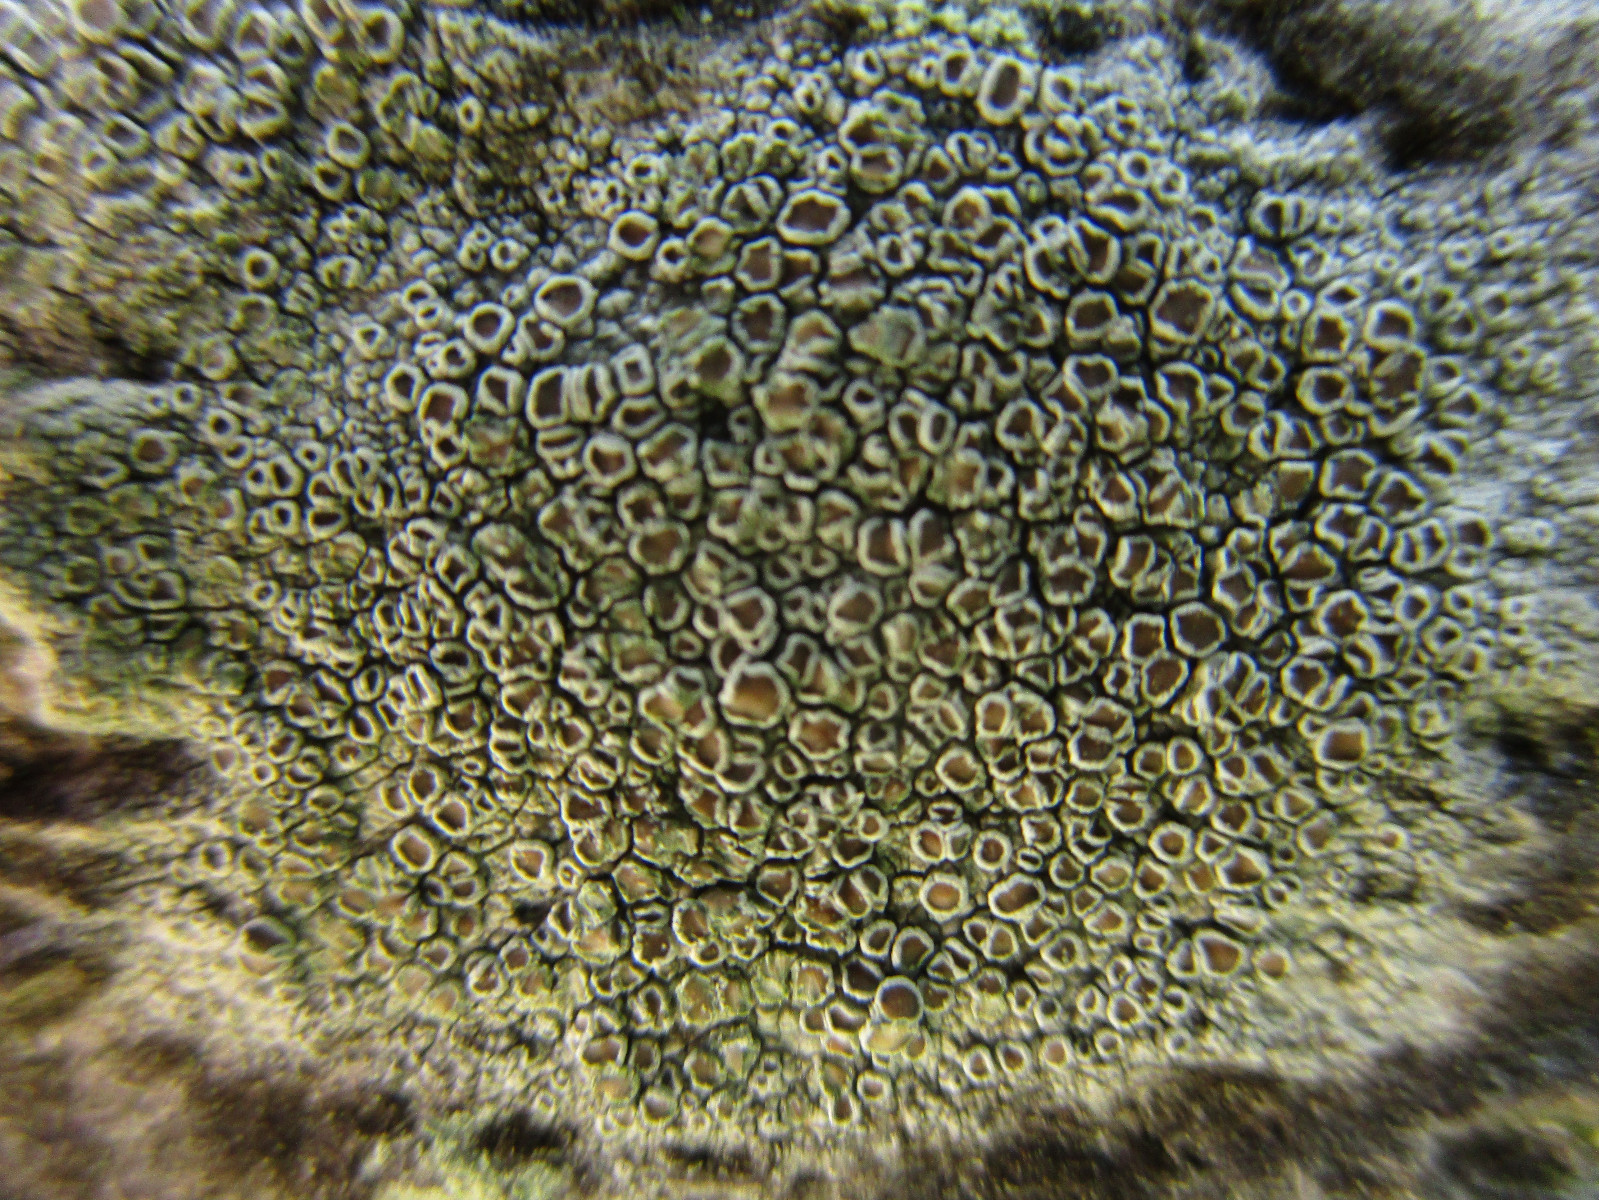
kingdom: Fungi
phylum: Ascomycota
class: Lecanoromycetes
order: Lecanorales
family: Lecanoraceae
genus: Lecanora
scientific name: Lecanora chlarotera
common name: brun kantskivelav
